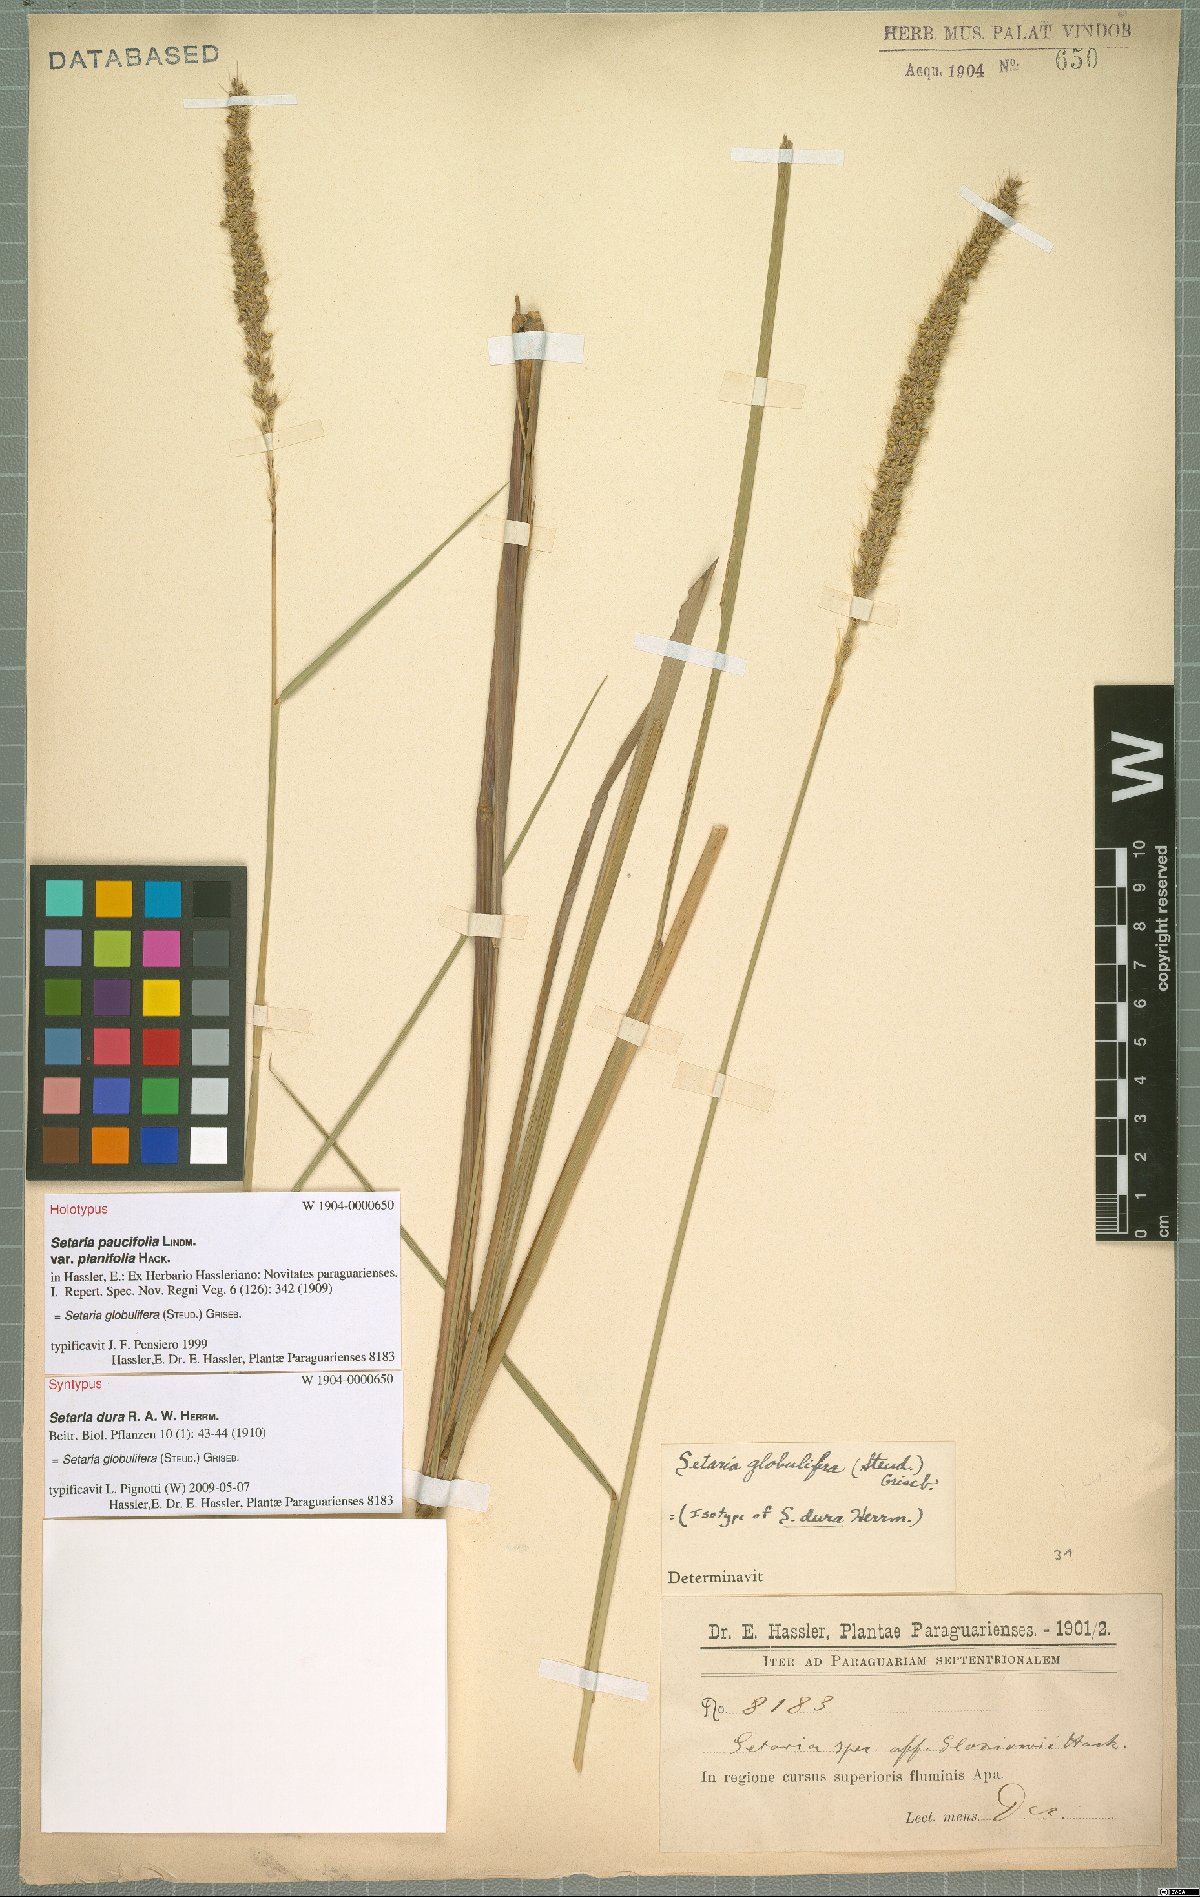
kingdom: Plantae
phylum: Tracheophyta
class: Liliopsida
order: Poales
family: Poaceae
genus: Setaria
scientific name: Setaria globulifera
